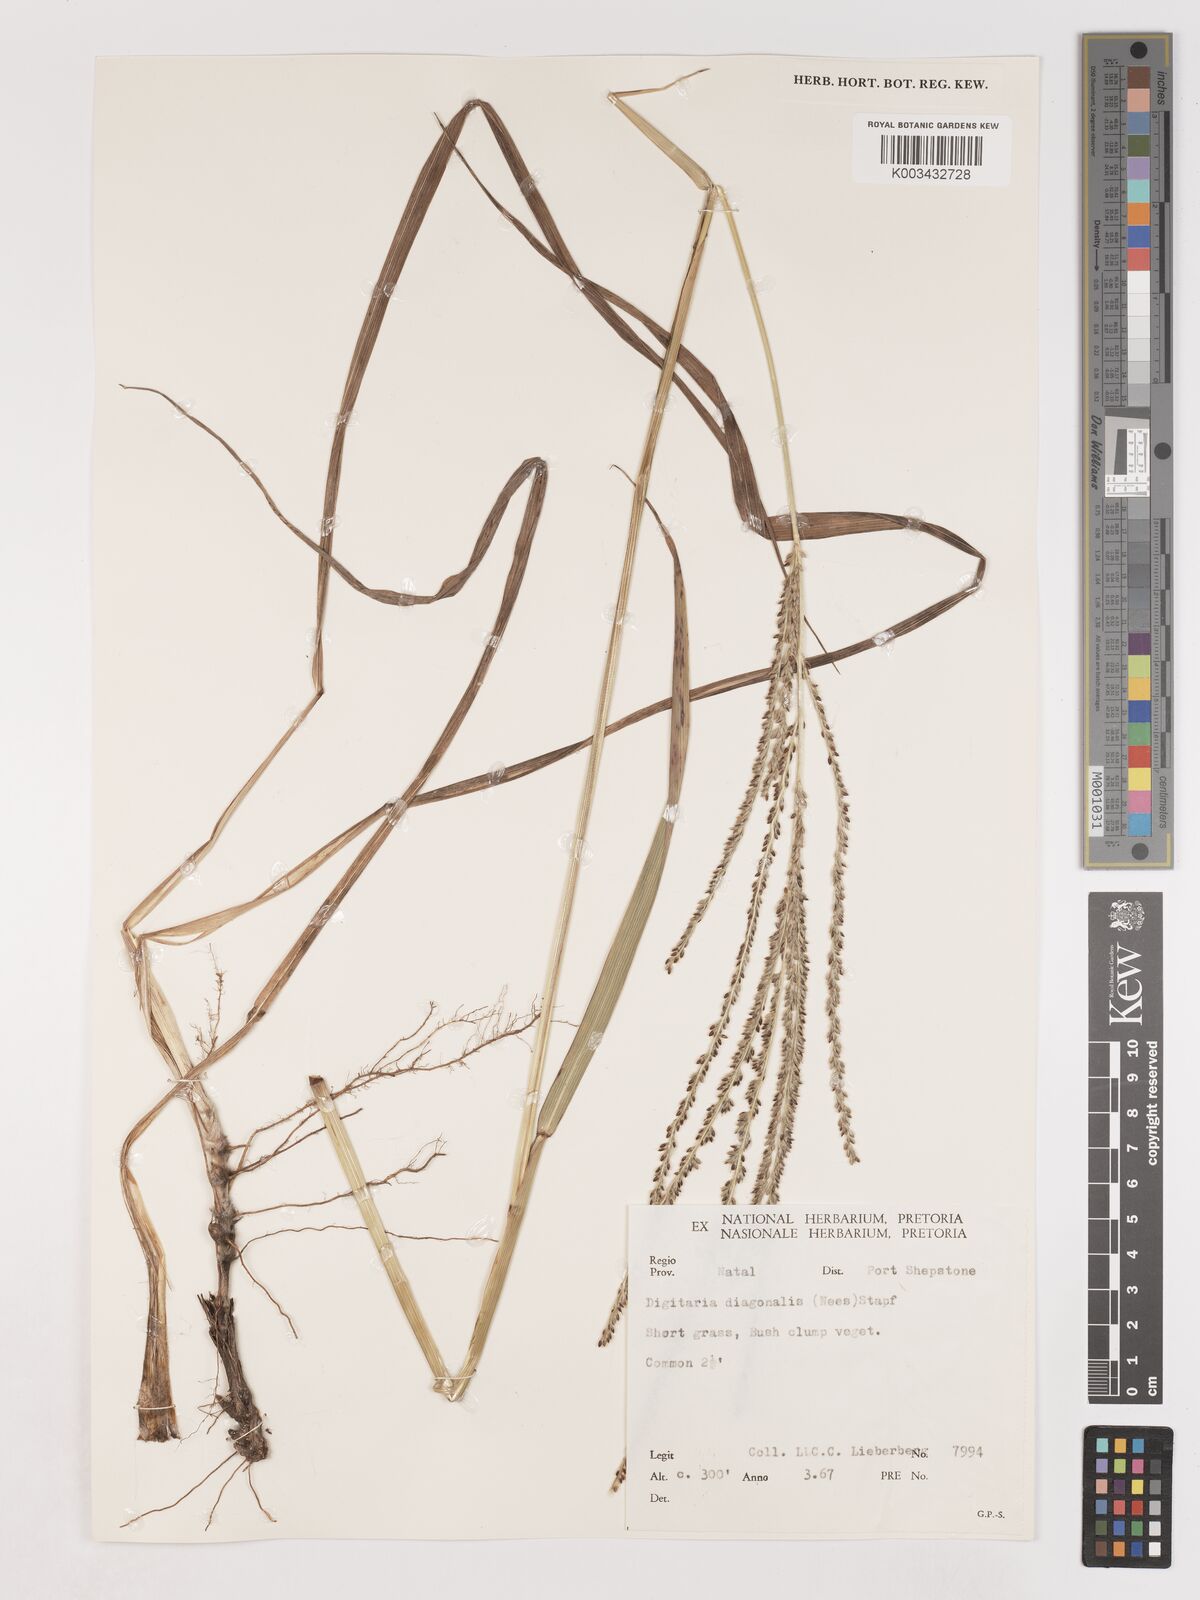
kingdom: Plantae
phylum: Tracheophyta
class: Liliopsida
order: Poales
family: Poaceae
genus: Digitaria
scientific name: Digitaria diagonalis
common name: Brown-seed finger grass
